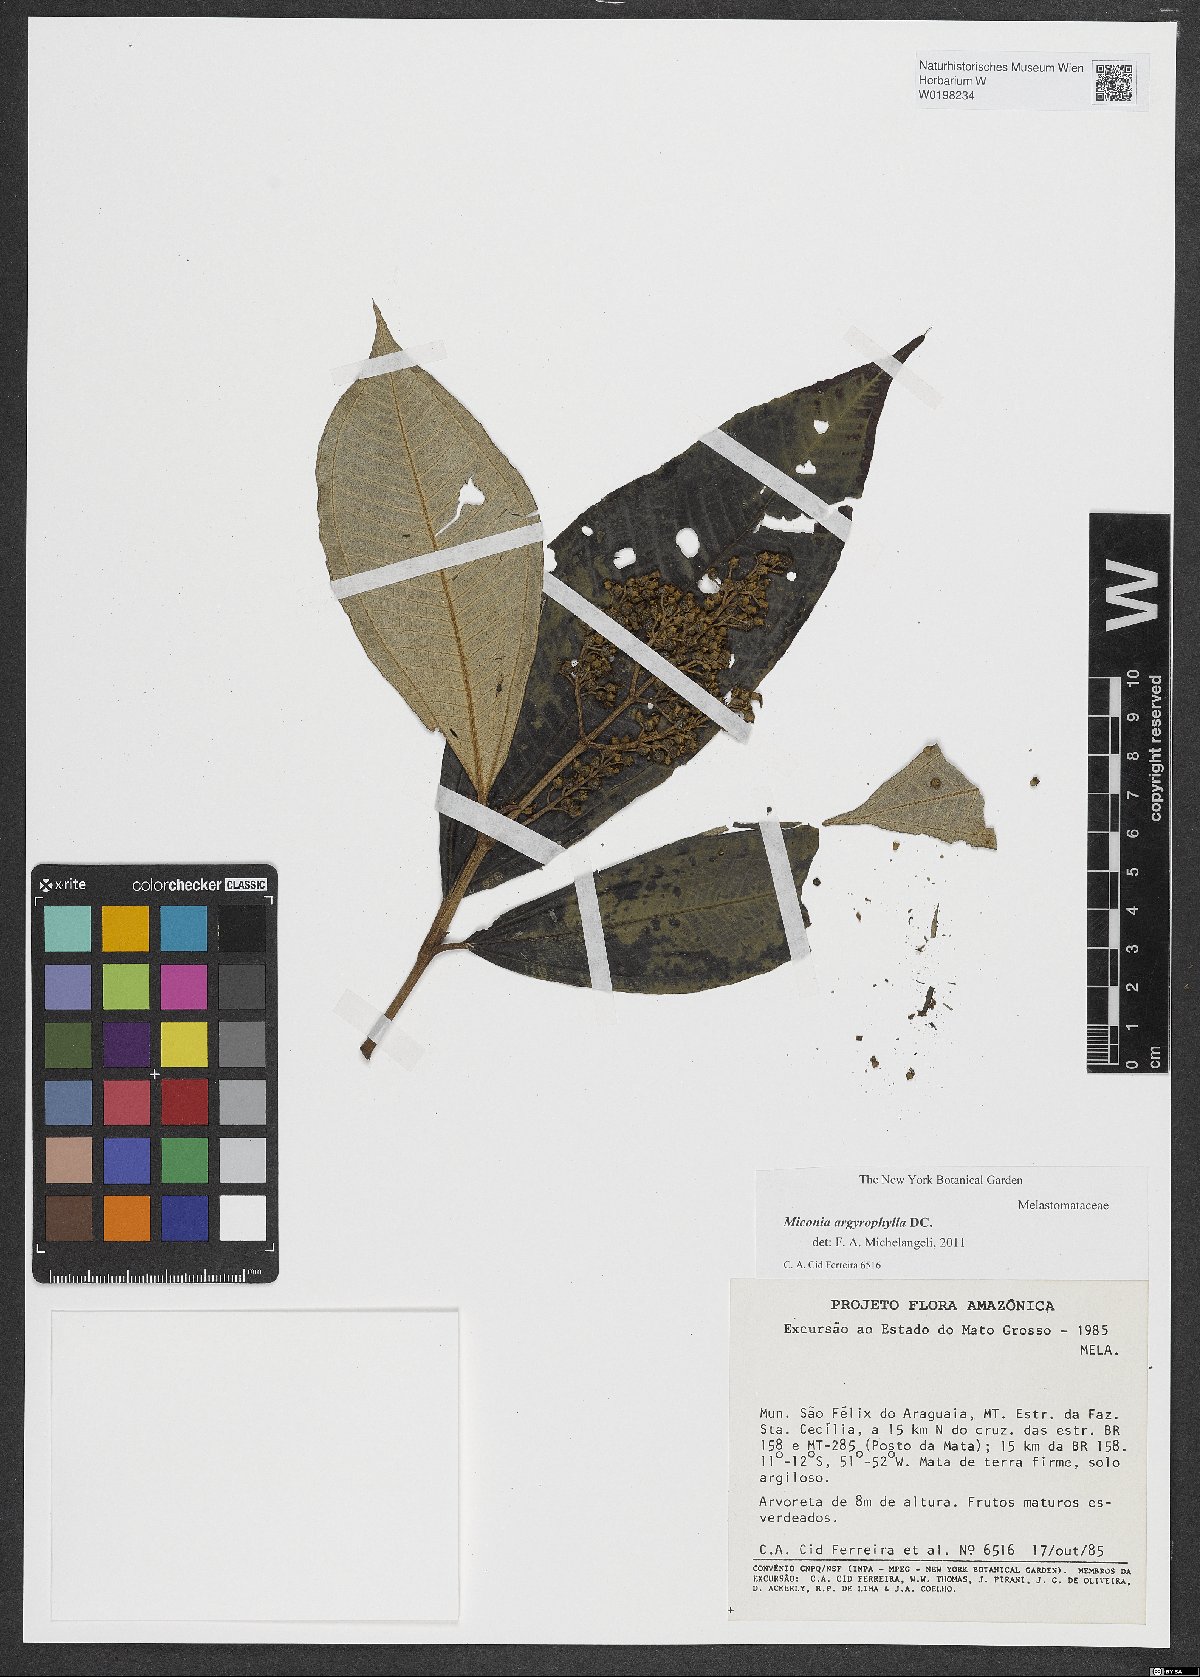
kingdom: Plantae
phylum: Tracheophyta
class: Magnoliopsida
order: Myrtales
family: Melastomataceae
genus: Miconia
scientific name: Miconia argyrophylla
